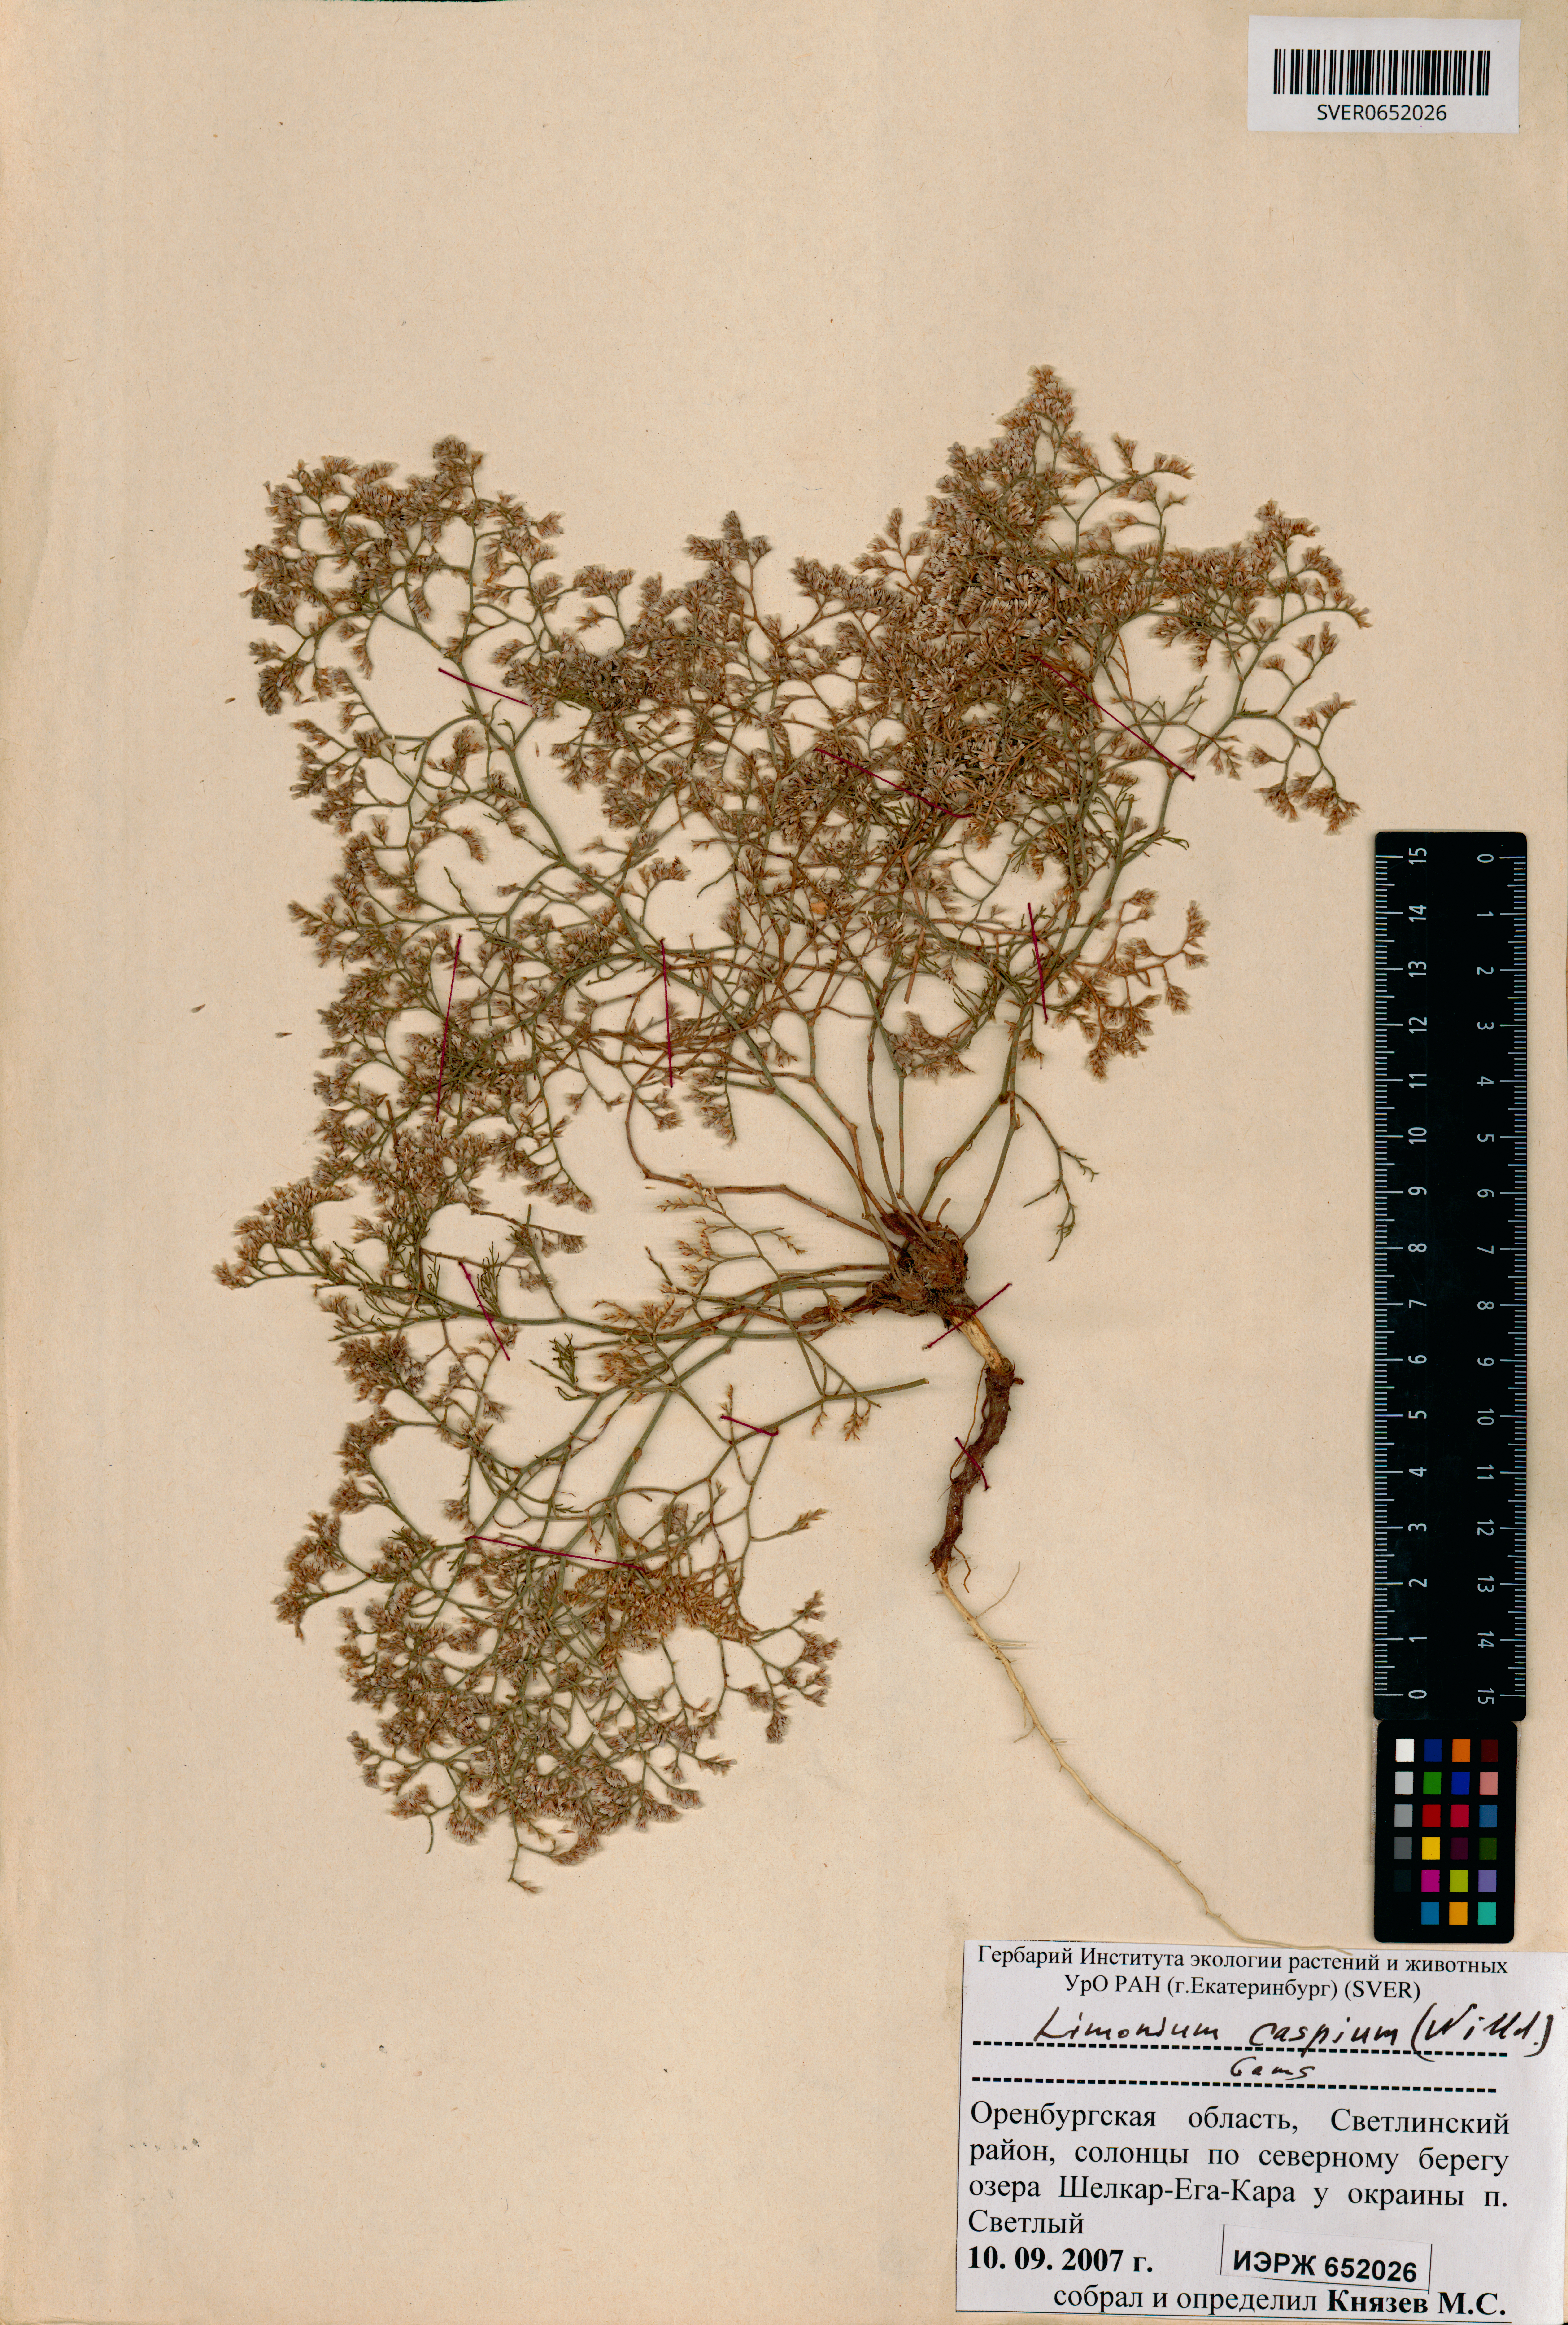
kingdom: Plantae
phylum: Tracheophyta
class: Magnoliopsida
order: Caryophyllales
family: Plumbaginaceae
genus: Limonium
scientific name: Limonium bellidifolium
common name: Matted sea-lavender
